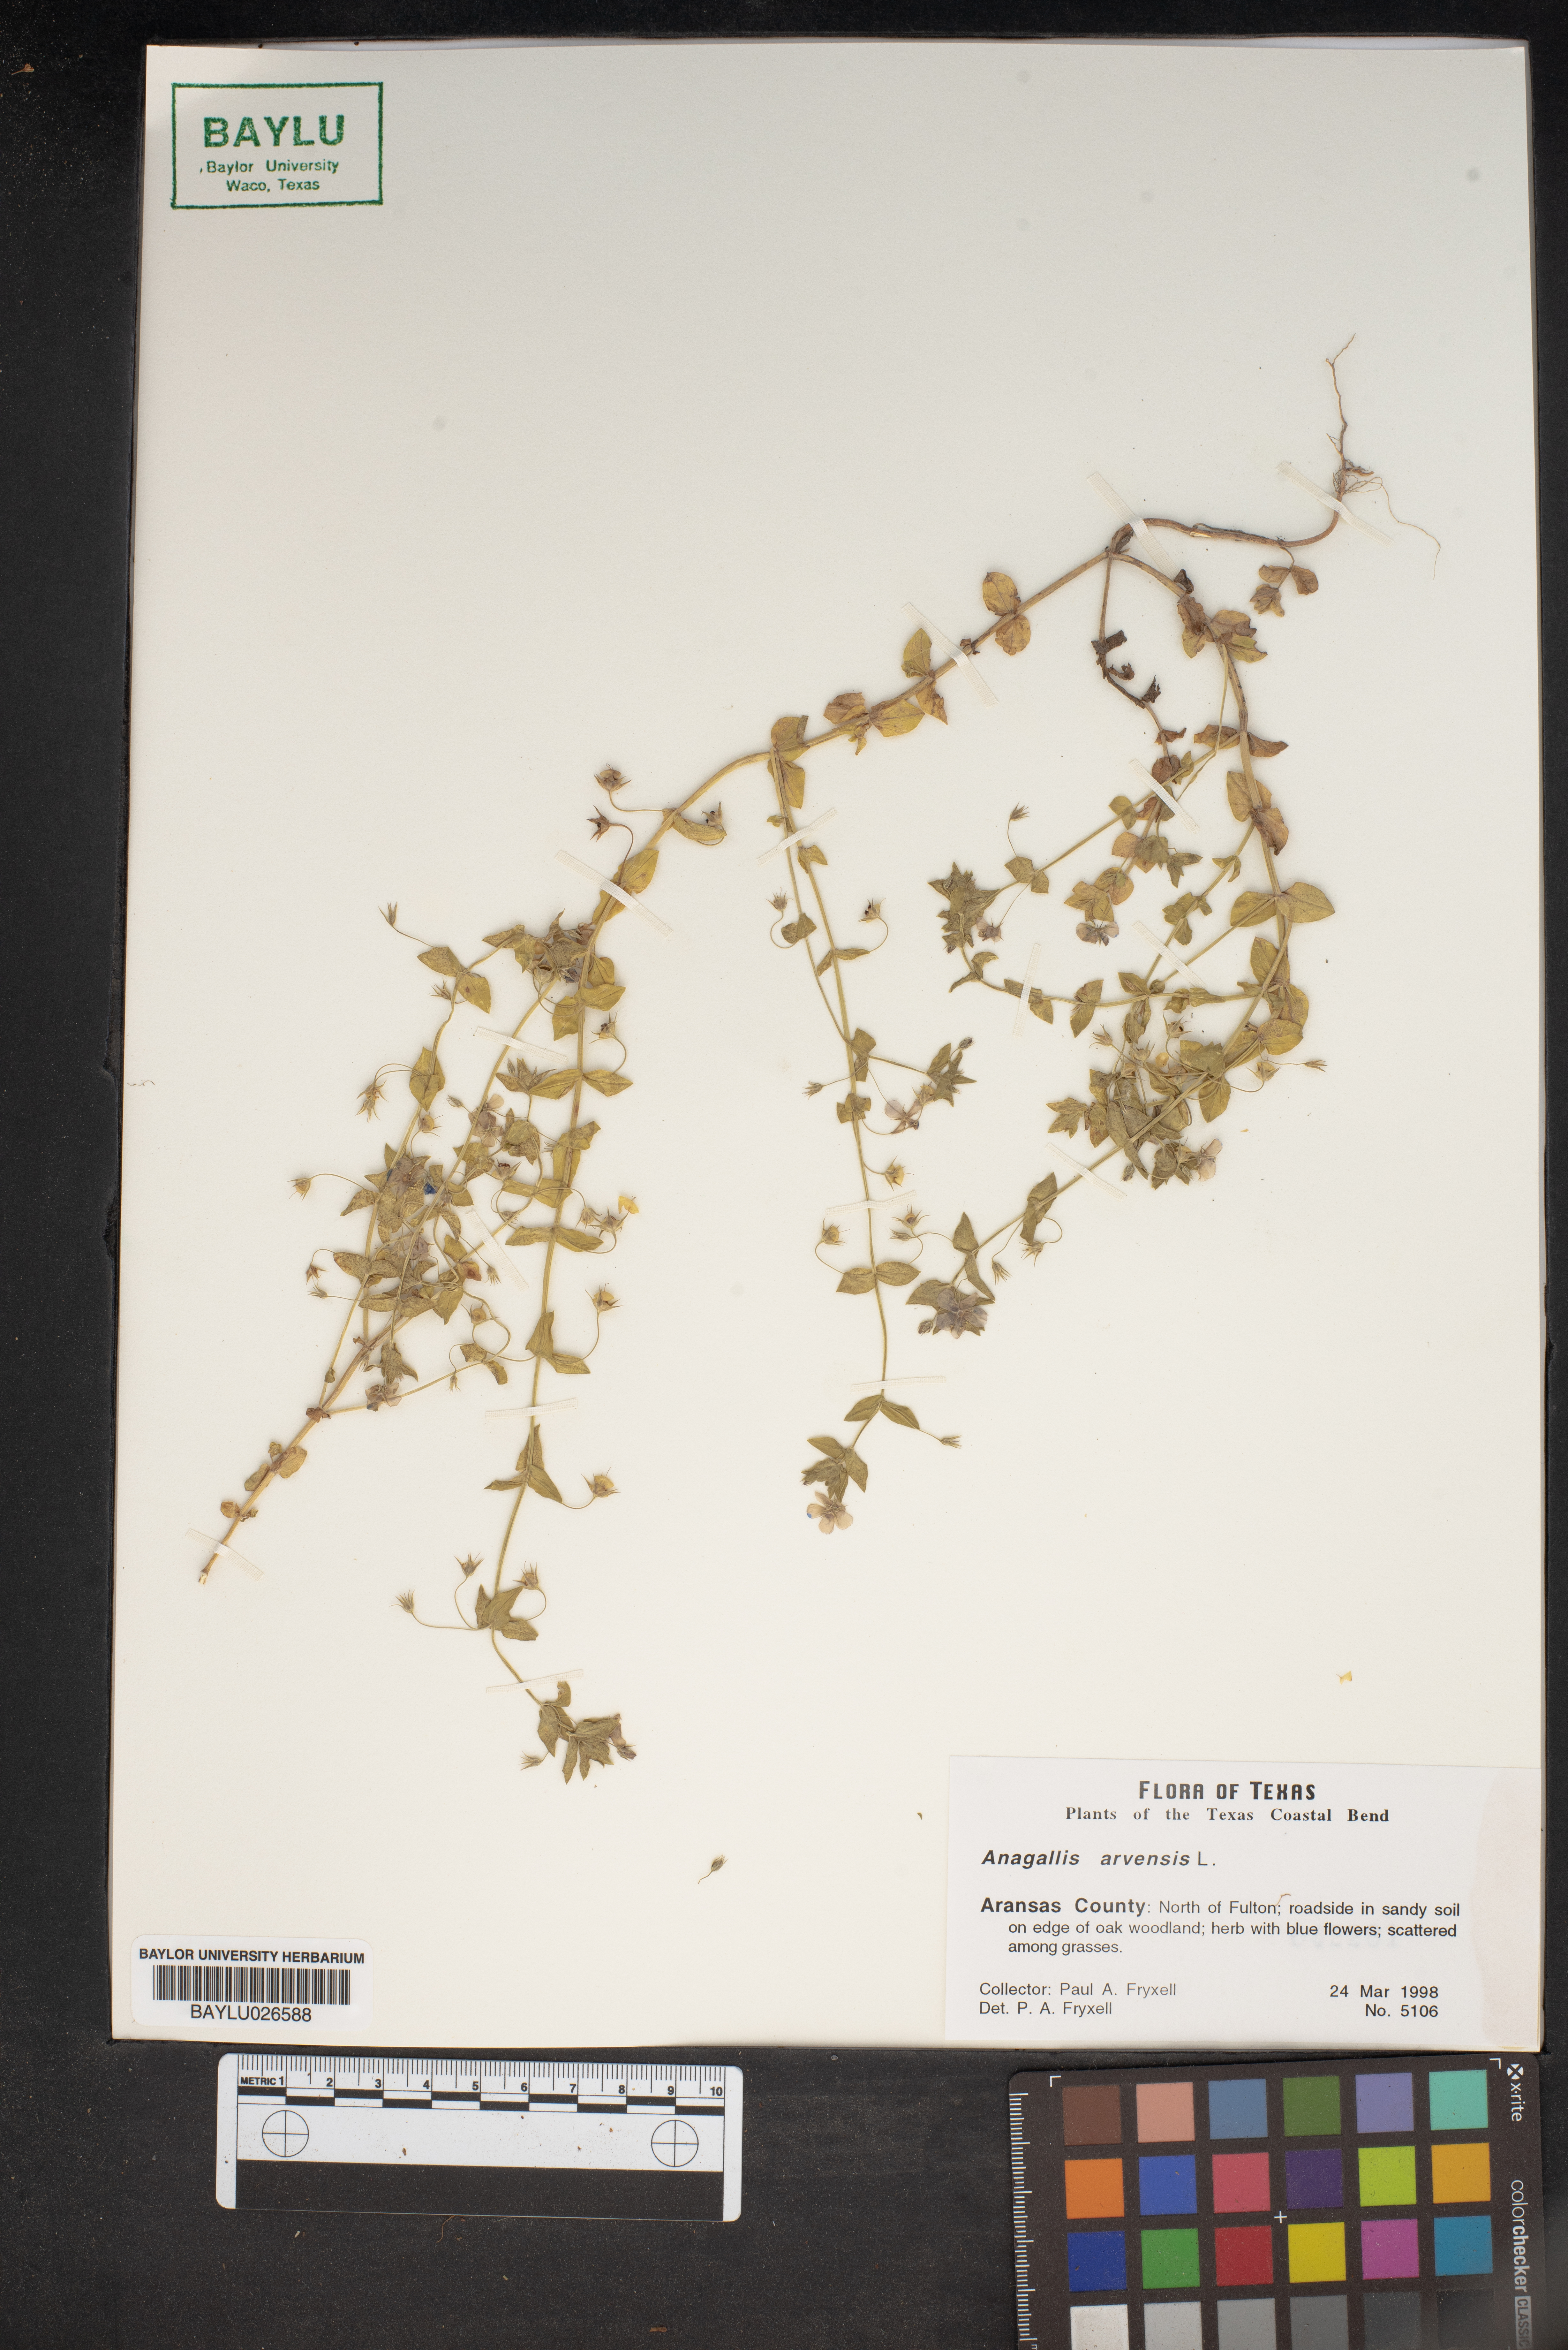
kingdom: Plantae
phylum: Tracheophyta
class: Magnoliopsida
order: Ericales
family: Primulaceae
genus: Lysimachia
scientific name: Lysimachia arvensis
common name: Scarlet pimpernel
